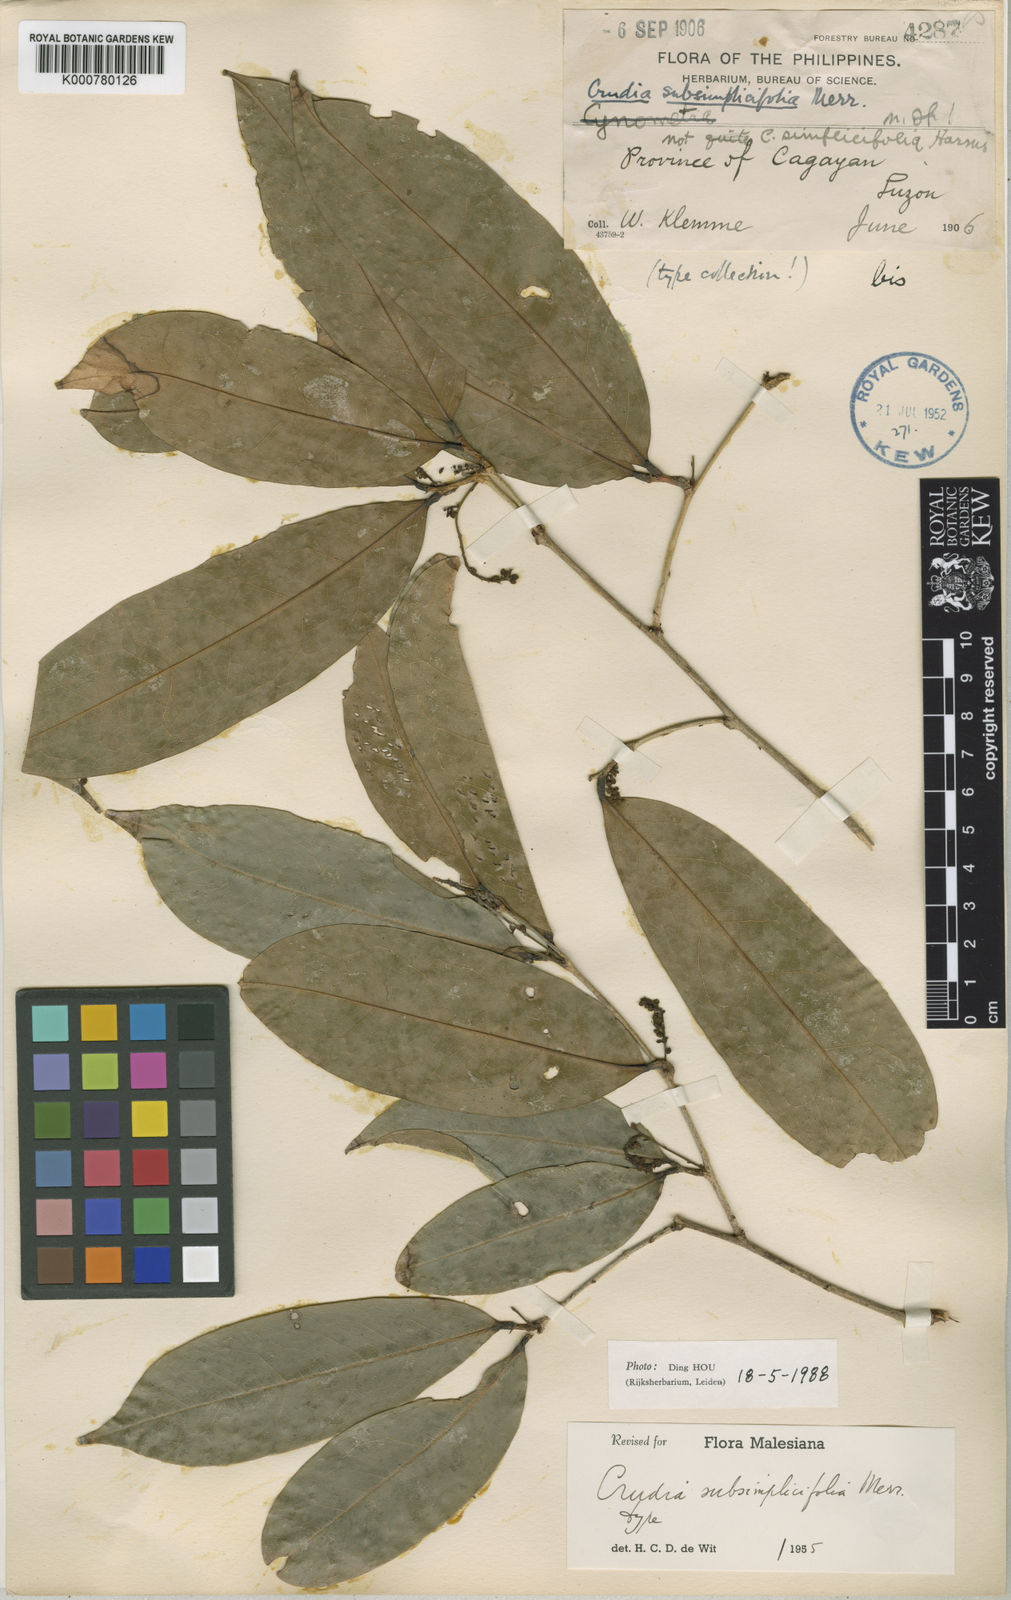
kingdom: Plantae
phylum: Tracheophyta
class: Magnoliopsida
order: Fabales
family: Fabaceae
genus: Crudia
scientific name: Crudia gracilis
